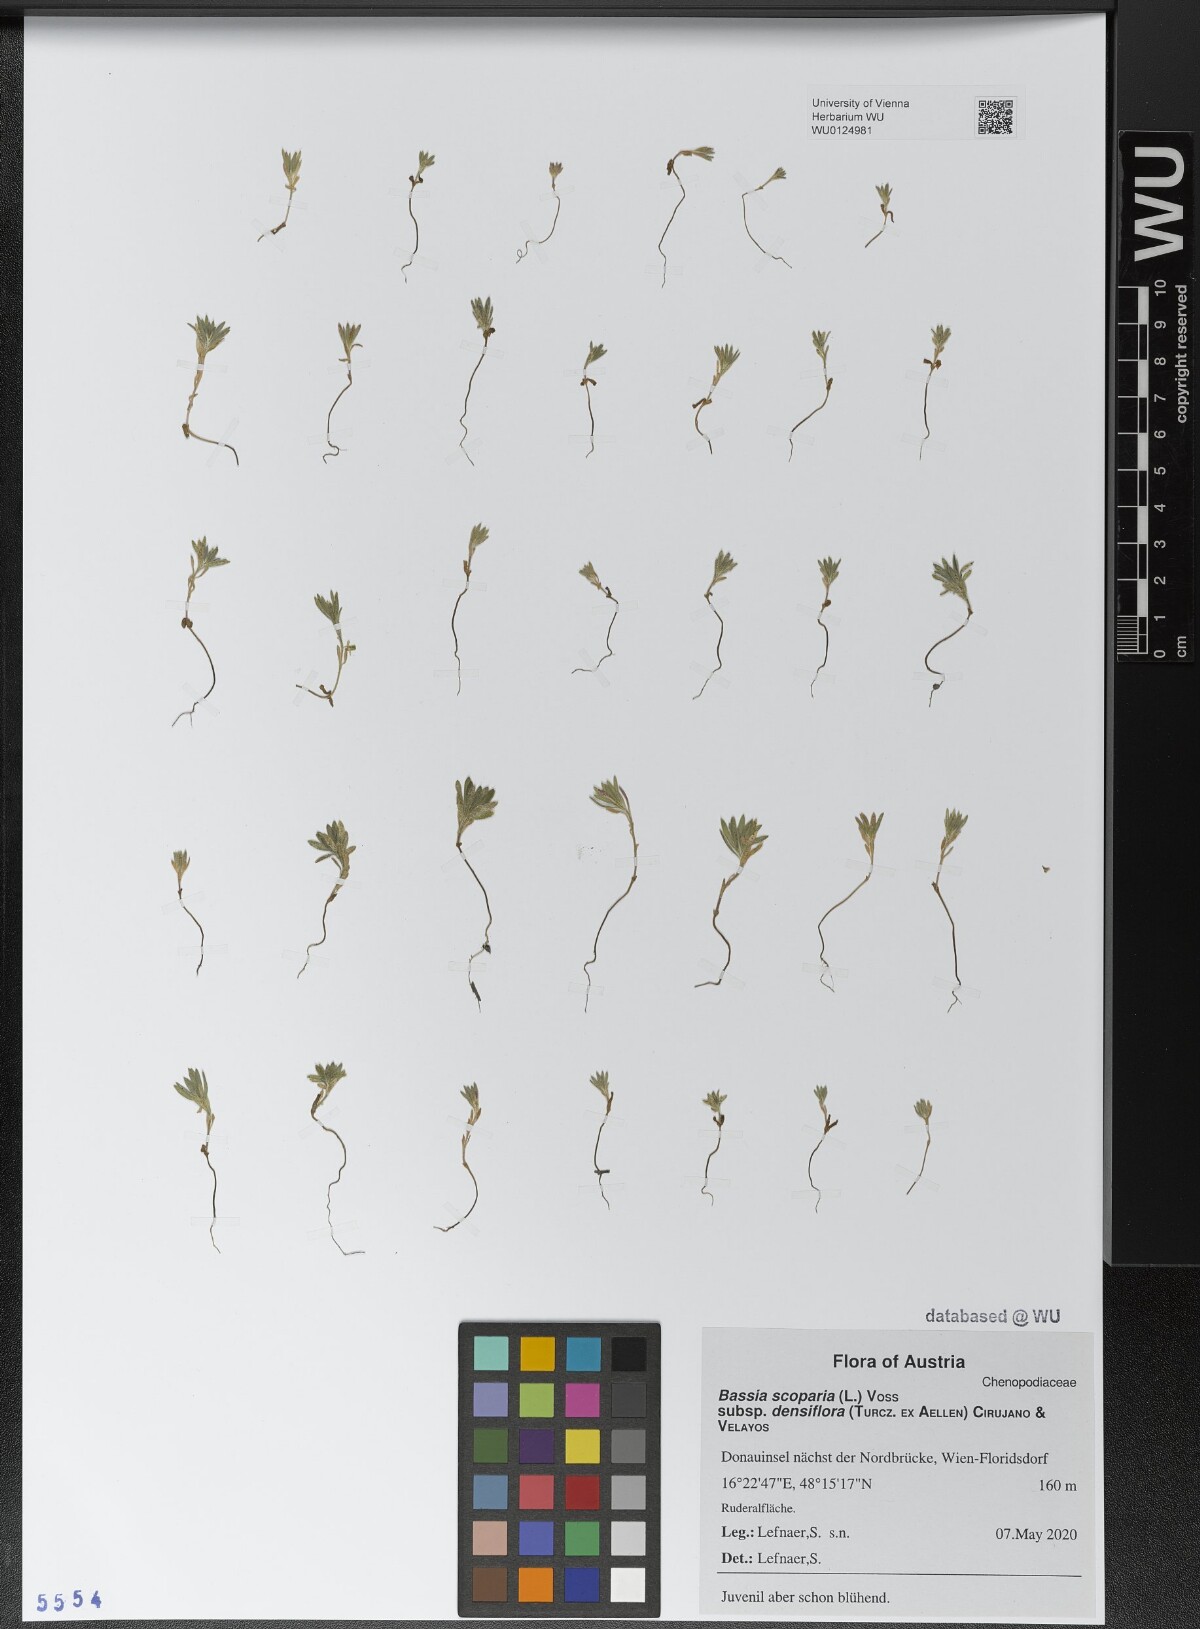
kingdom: Plantae
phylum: Tracheophyta
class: Magnoliopsida
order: Caryophyllales
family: Amaranthaceae
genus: Bassia
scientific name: Bassia scoparia
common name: Belvedere
